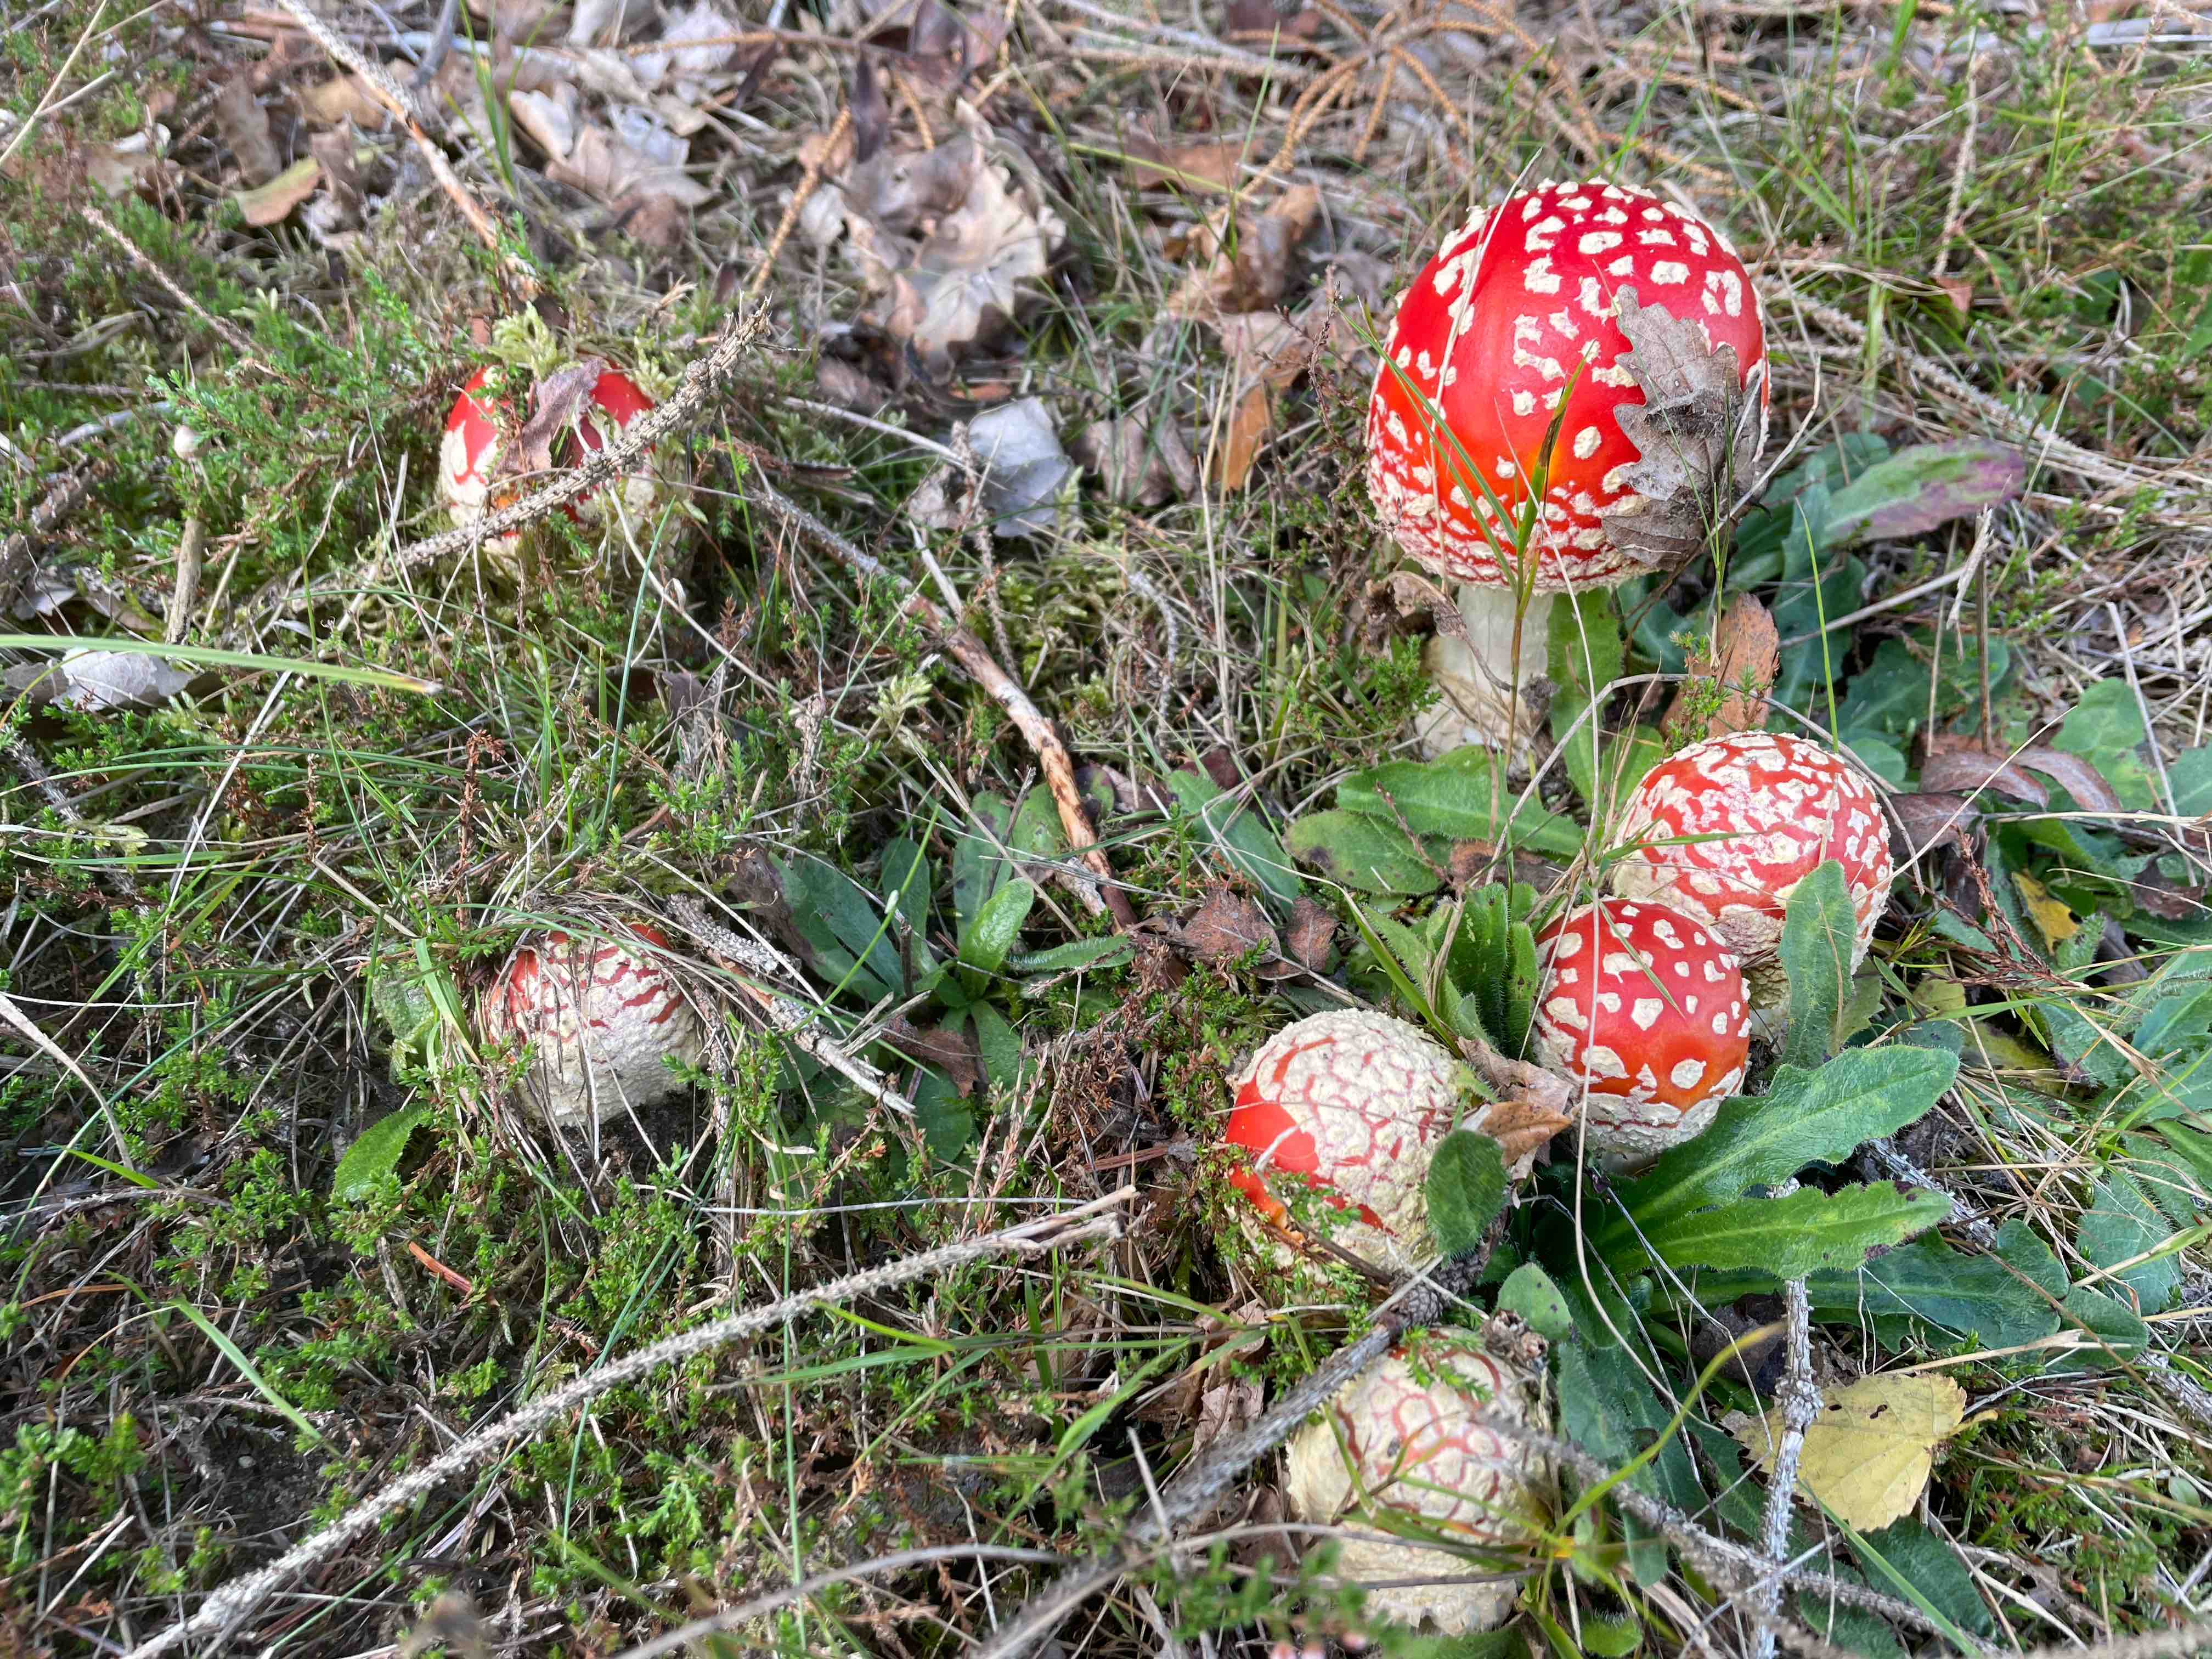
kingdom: Fungi
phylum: Basidiomycota
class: Agaricomycetes
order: Agaricales
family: Amanitaceae
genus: Amanita
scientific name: Amanita muscaria
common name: rød fluesvamp
